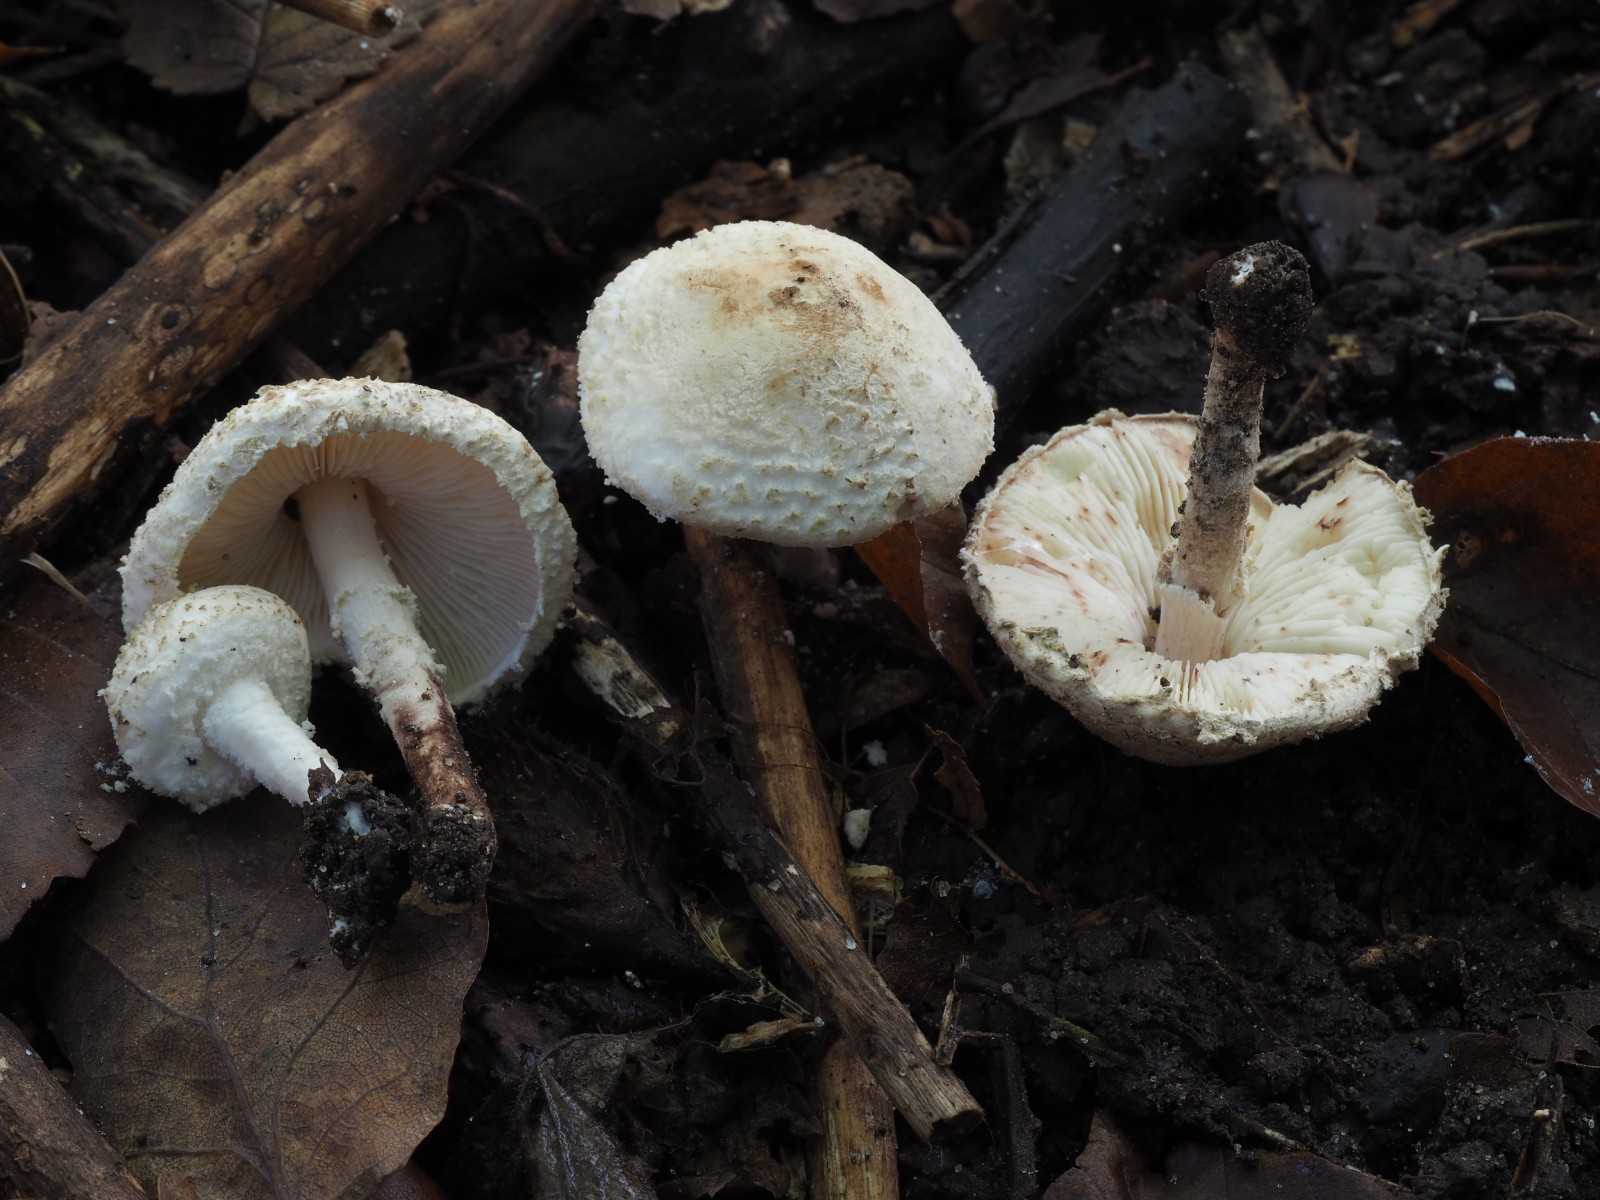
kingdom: Fungi
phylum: Basidiomycota
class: Agaricomycetes
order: Agaricales
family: Agaricaceae
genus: Cystolepiota
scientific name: Cystolepiota hetieri
